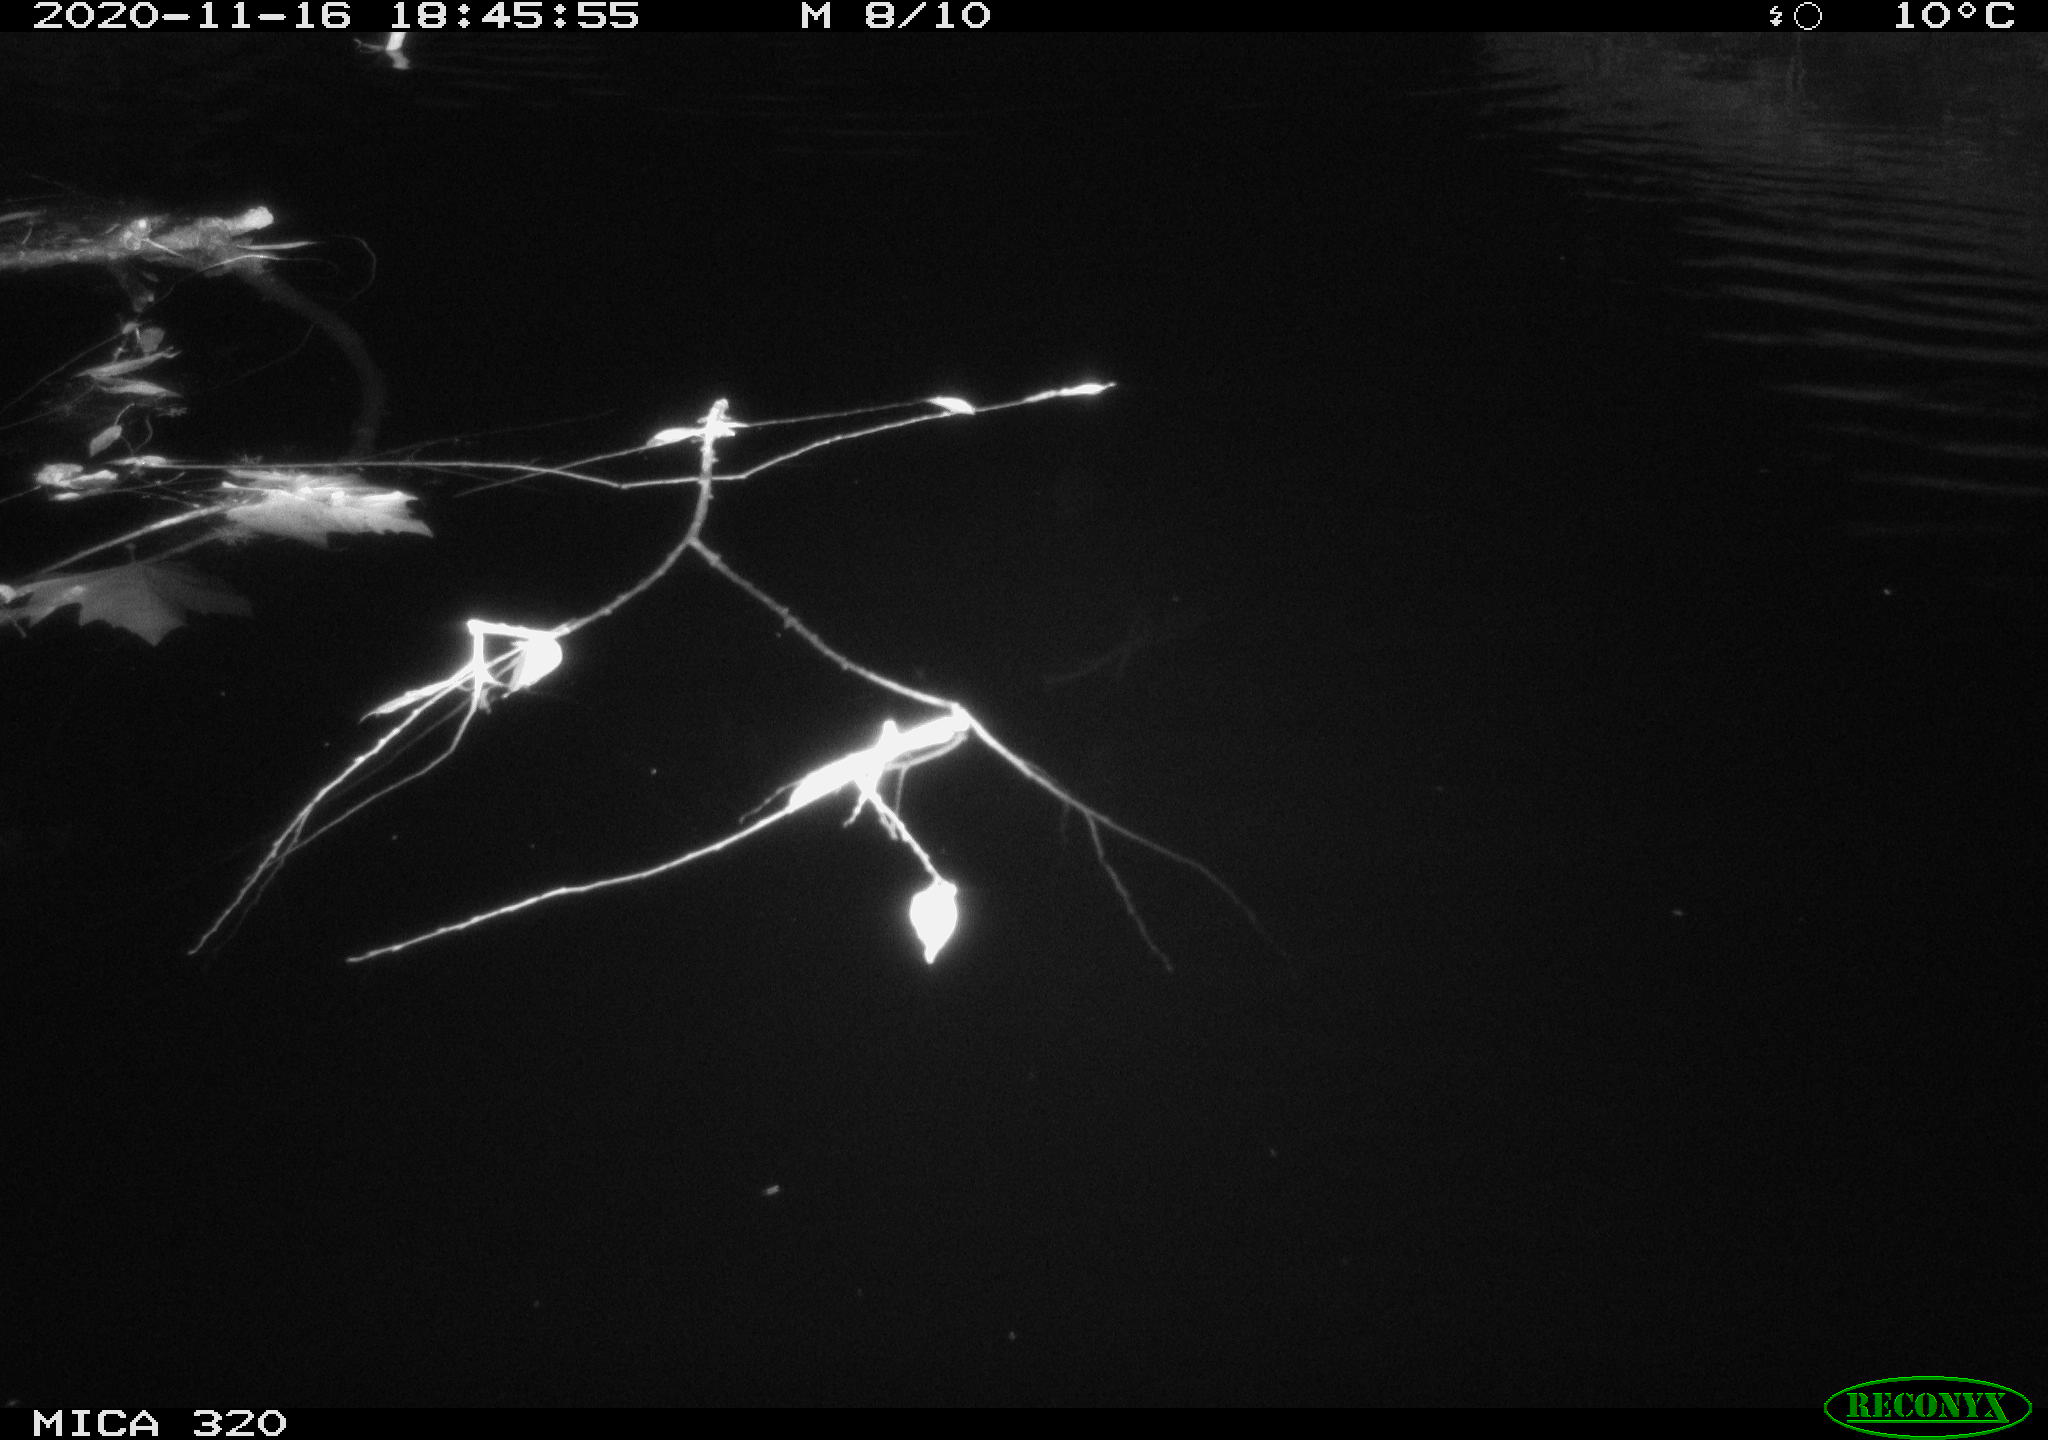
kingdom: Animalia
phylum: Chordata
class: Mammalia
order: Rodentia
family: Muridae
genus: Rattus
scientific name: Rattus norvegicus
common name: Brown rat
